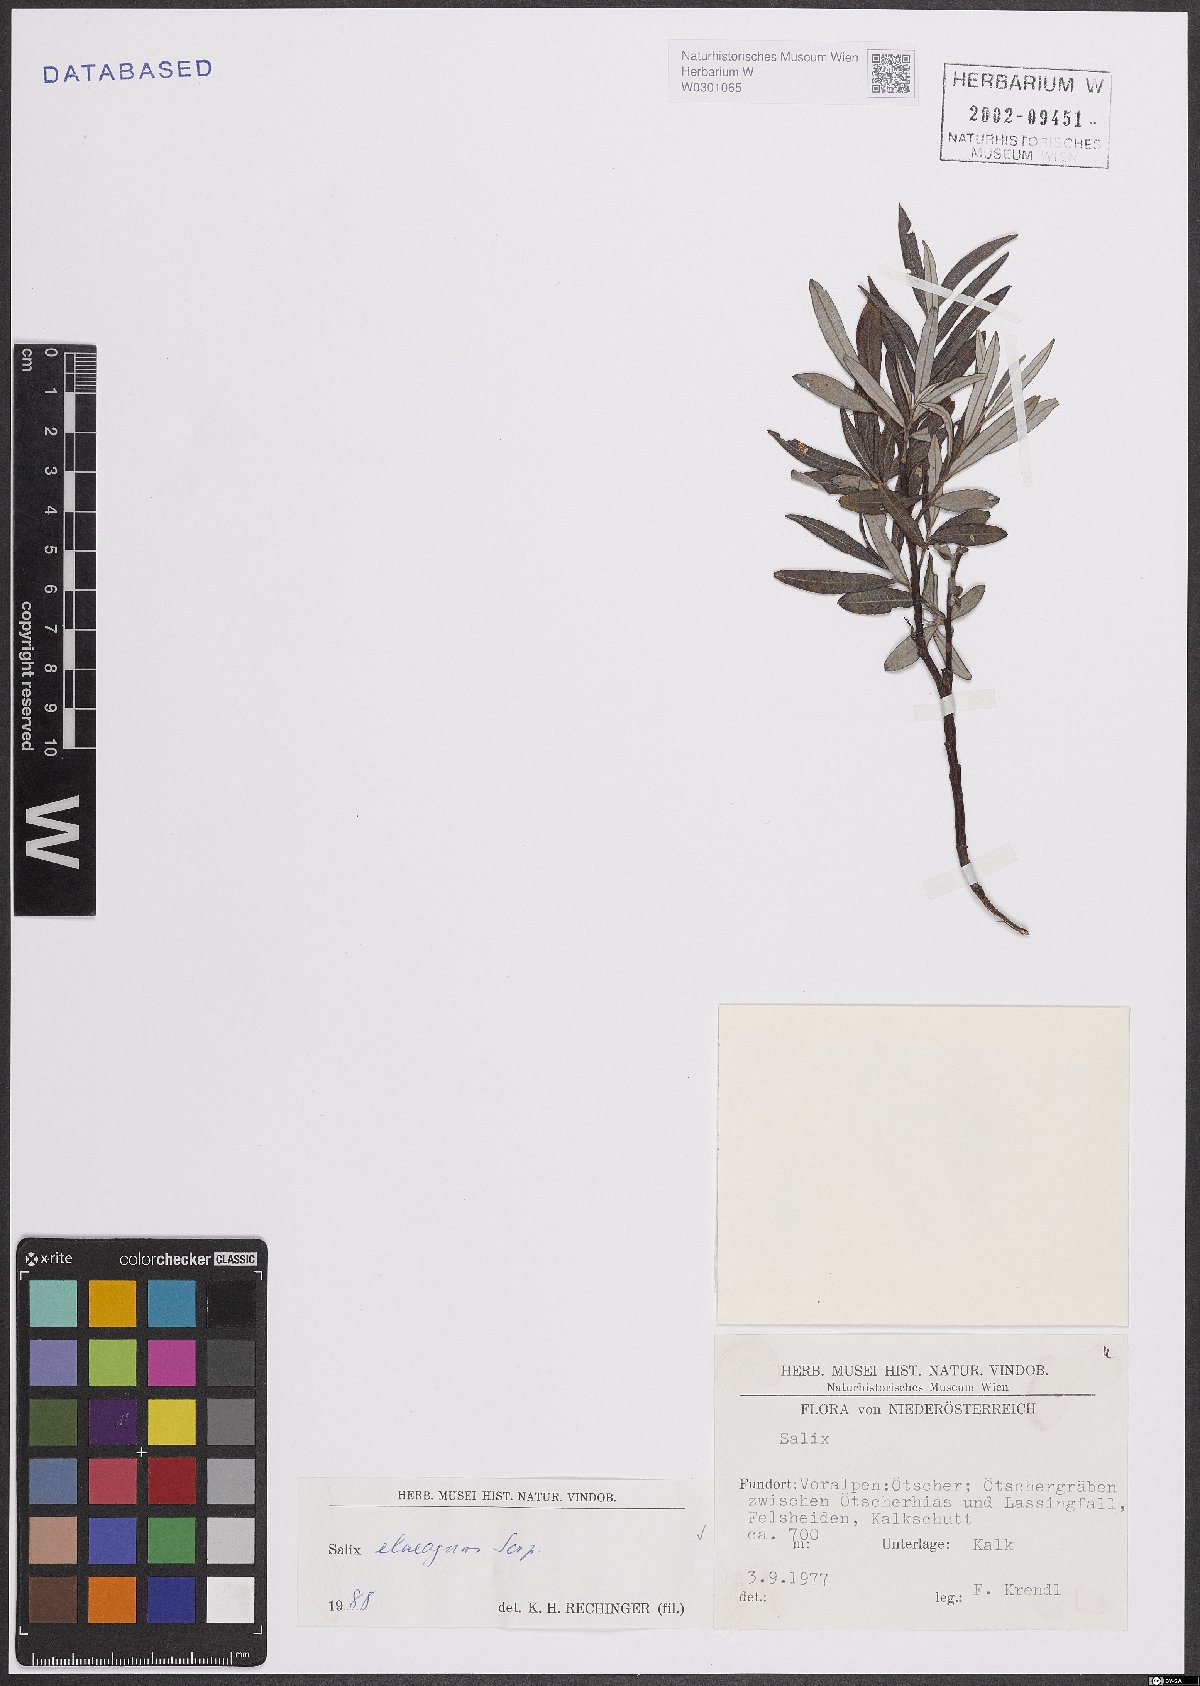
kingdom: Plantae
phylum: Tracheophyta
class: Magnoliopsida
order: Malpighiales
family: Salicaceae
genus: Salix
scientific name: Salix eleagnos
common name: Elaeagnus willow
